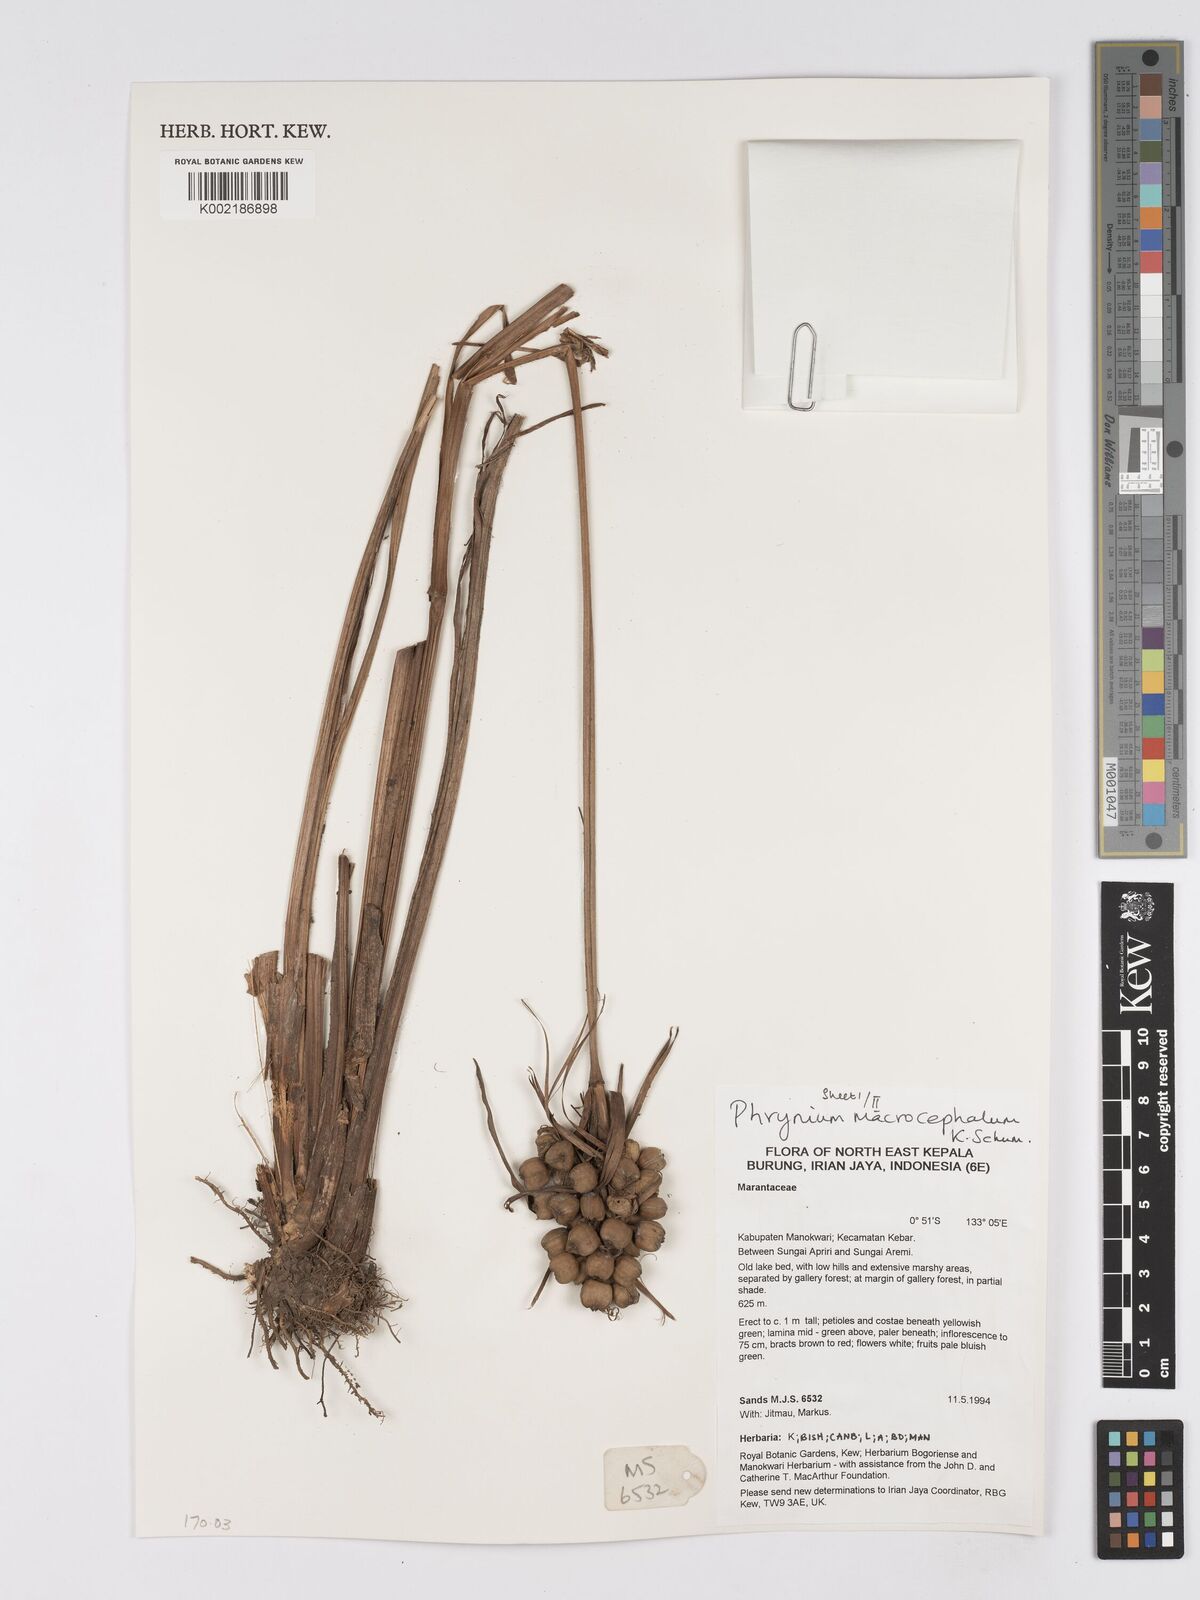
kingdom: Plantae
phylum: Tracheophyta
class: Liliopsida
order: Zingiberales
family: Marantaceae
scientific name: Marantaceae
